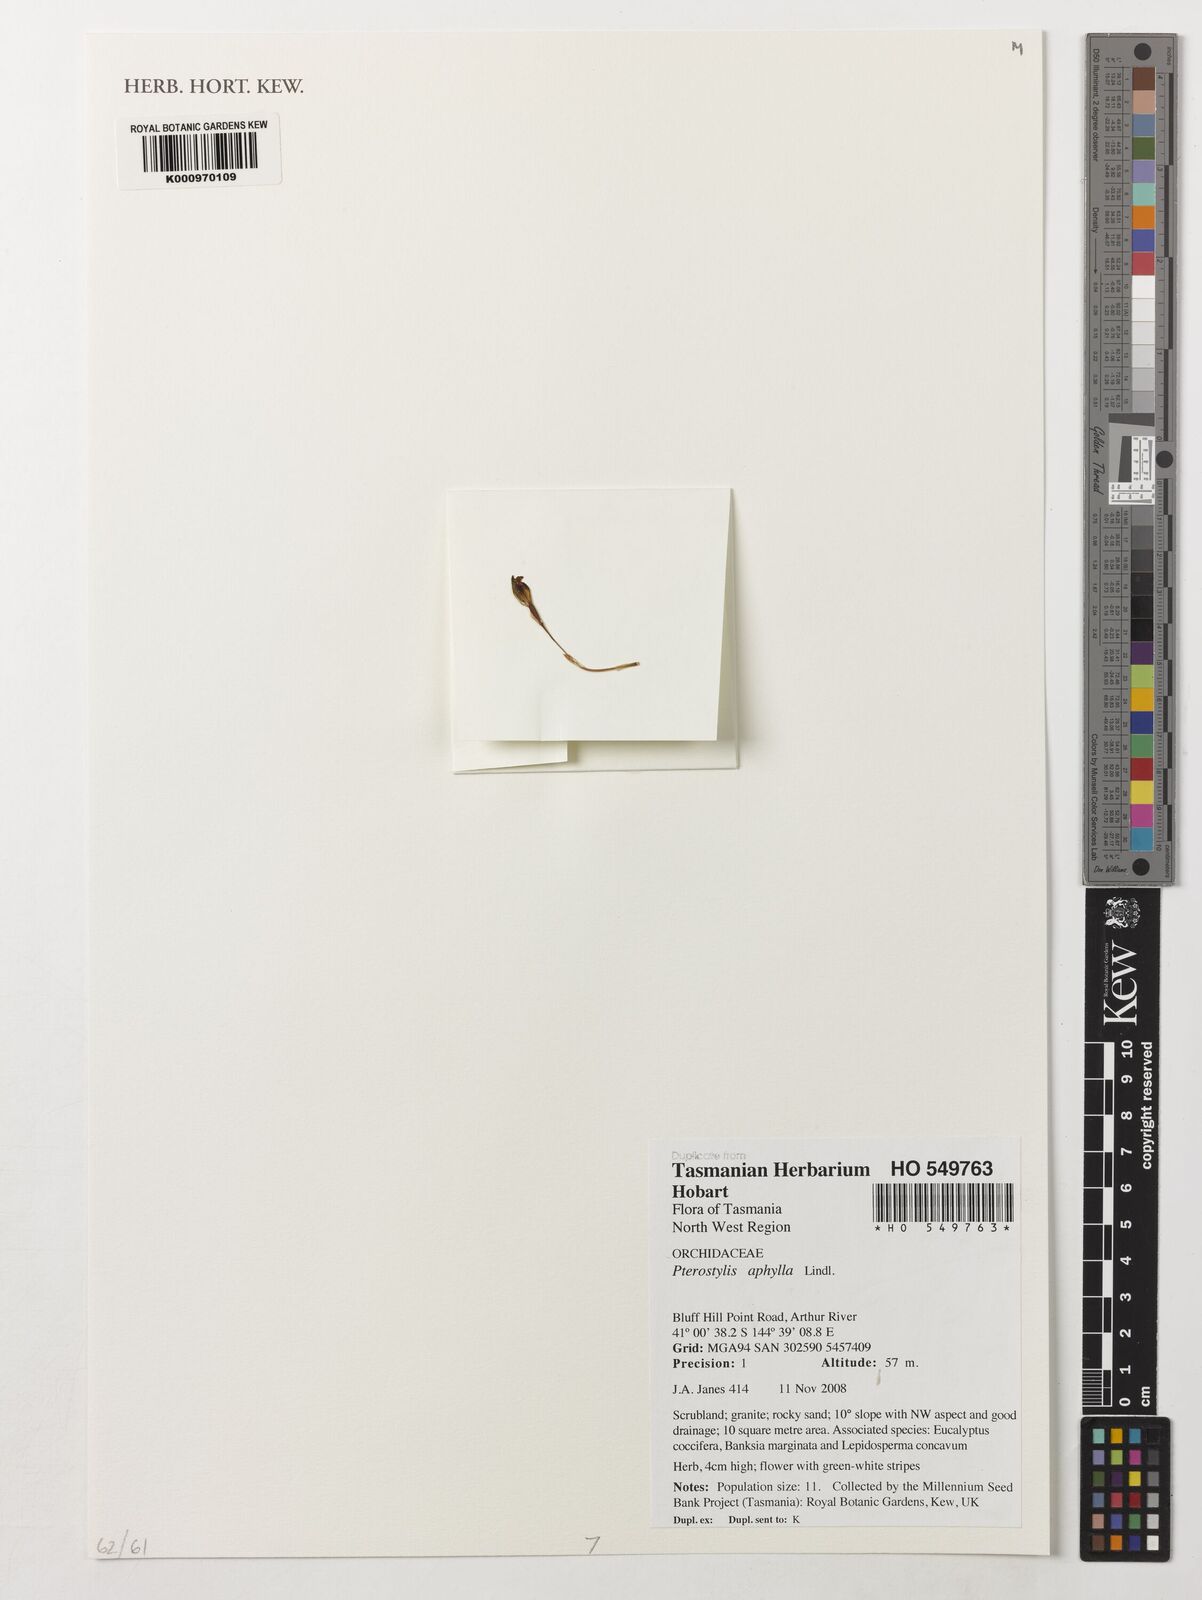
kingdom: Plantae
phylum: Tracheophyta
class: Liliopsida
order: Asparagales
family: Orchidaceae
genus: Pterostylis
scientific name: Pterostylis aphylla
